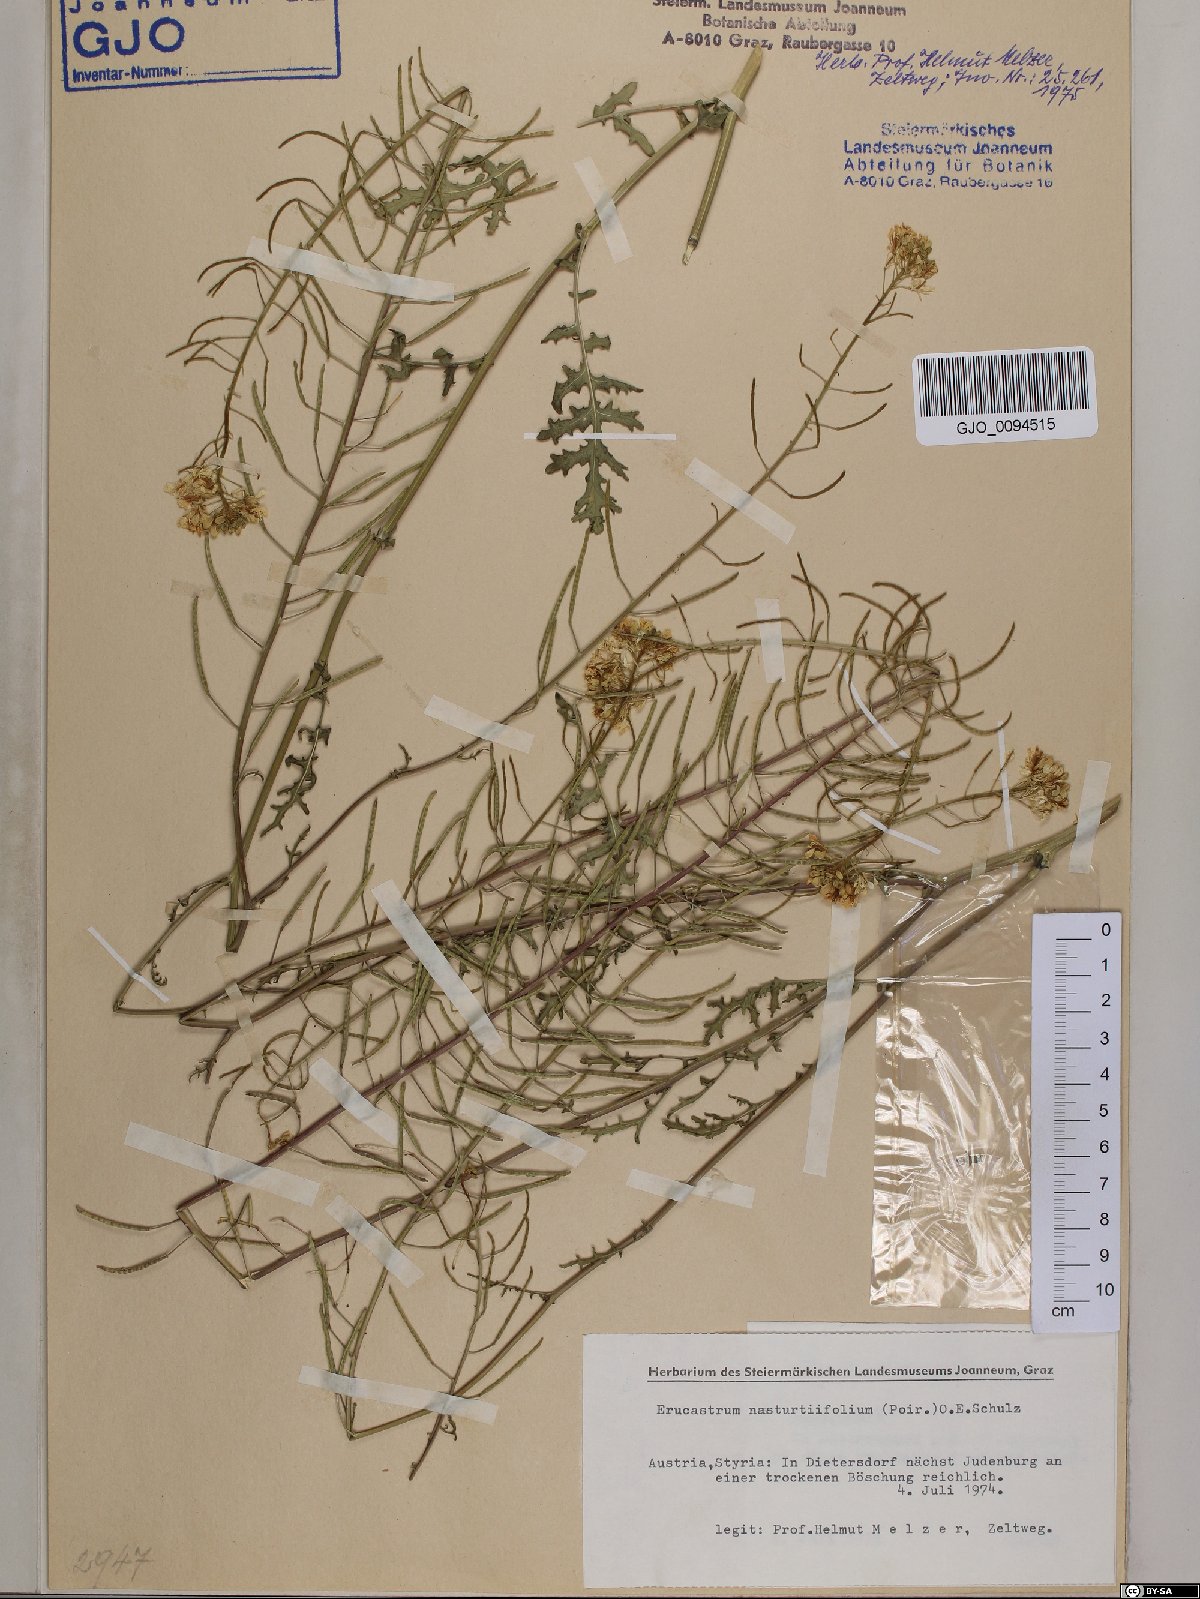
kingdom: Plantae
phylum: Tracheophyta
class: Magnoliopsida
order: Brassicales
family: Brassicaceae
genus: Erucastrum
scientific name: Erucastrum nasturtiifolium
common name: Watercress-leaf rocket
